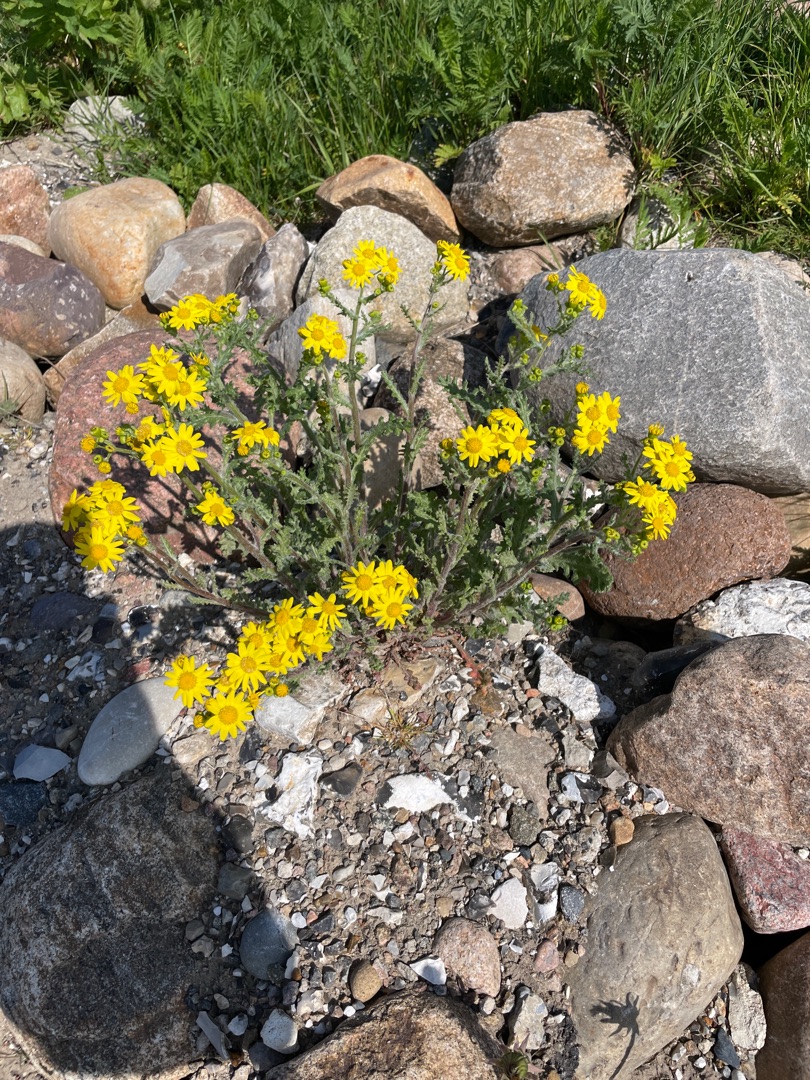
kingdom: Plantae
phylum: Tracheophyta
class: Magnoliopsida
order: Asterales
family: Asteraceae
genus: Senecio
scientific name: Senecio leucanthemifolius
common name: Vår-brandbæger
